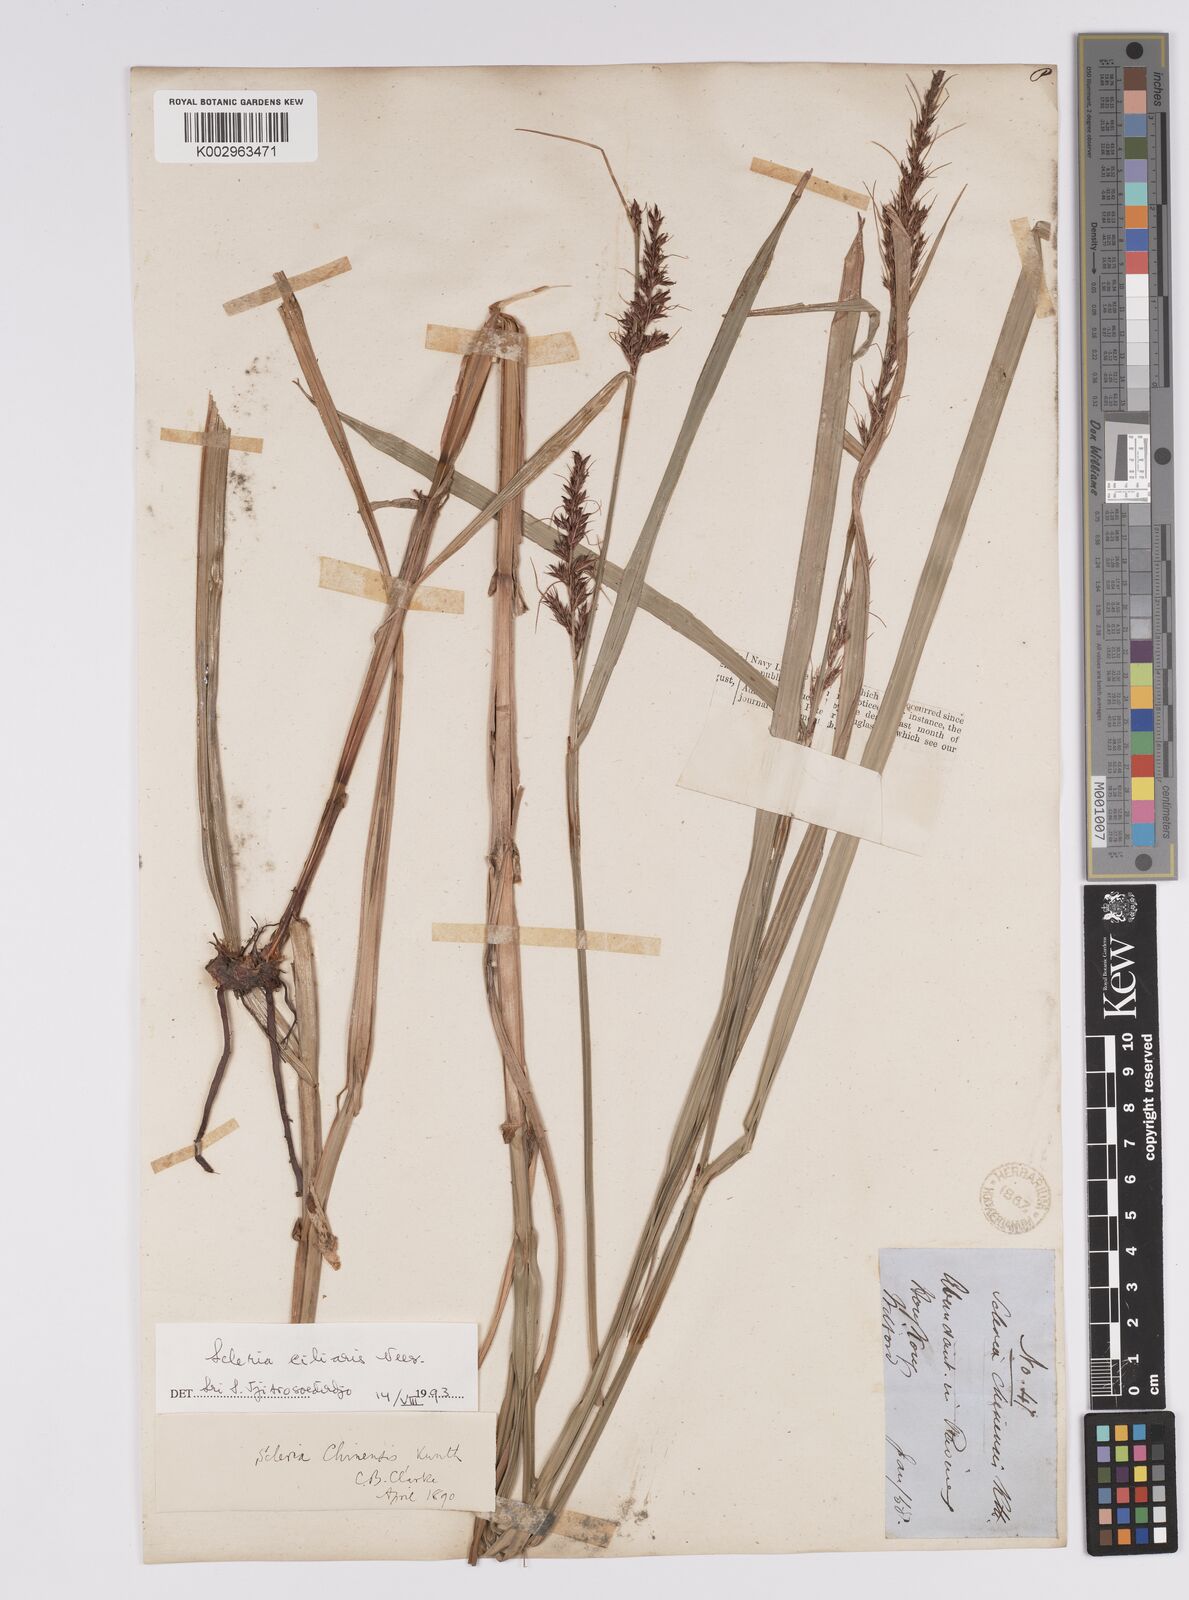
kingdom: Plantae
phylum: Tracheophyta
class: Liliopsida
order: Poales
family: Cyperaceae
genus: Scleria
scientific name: Scleria ciliaris
